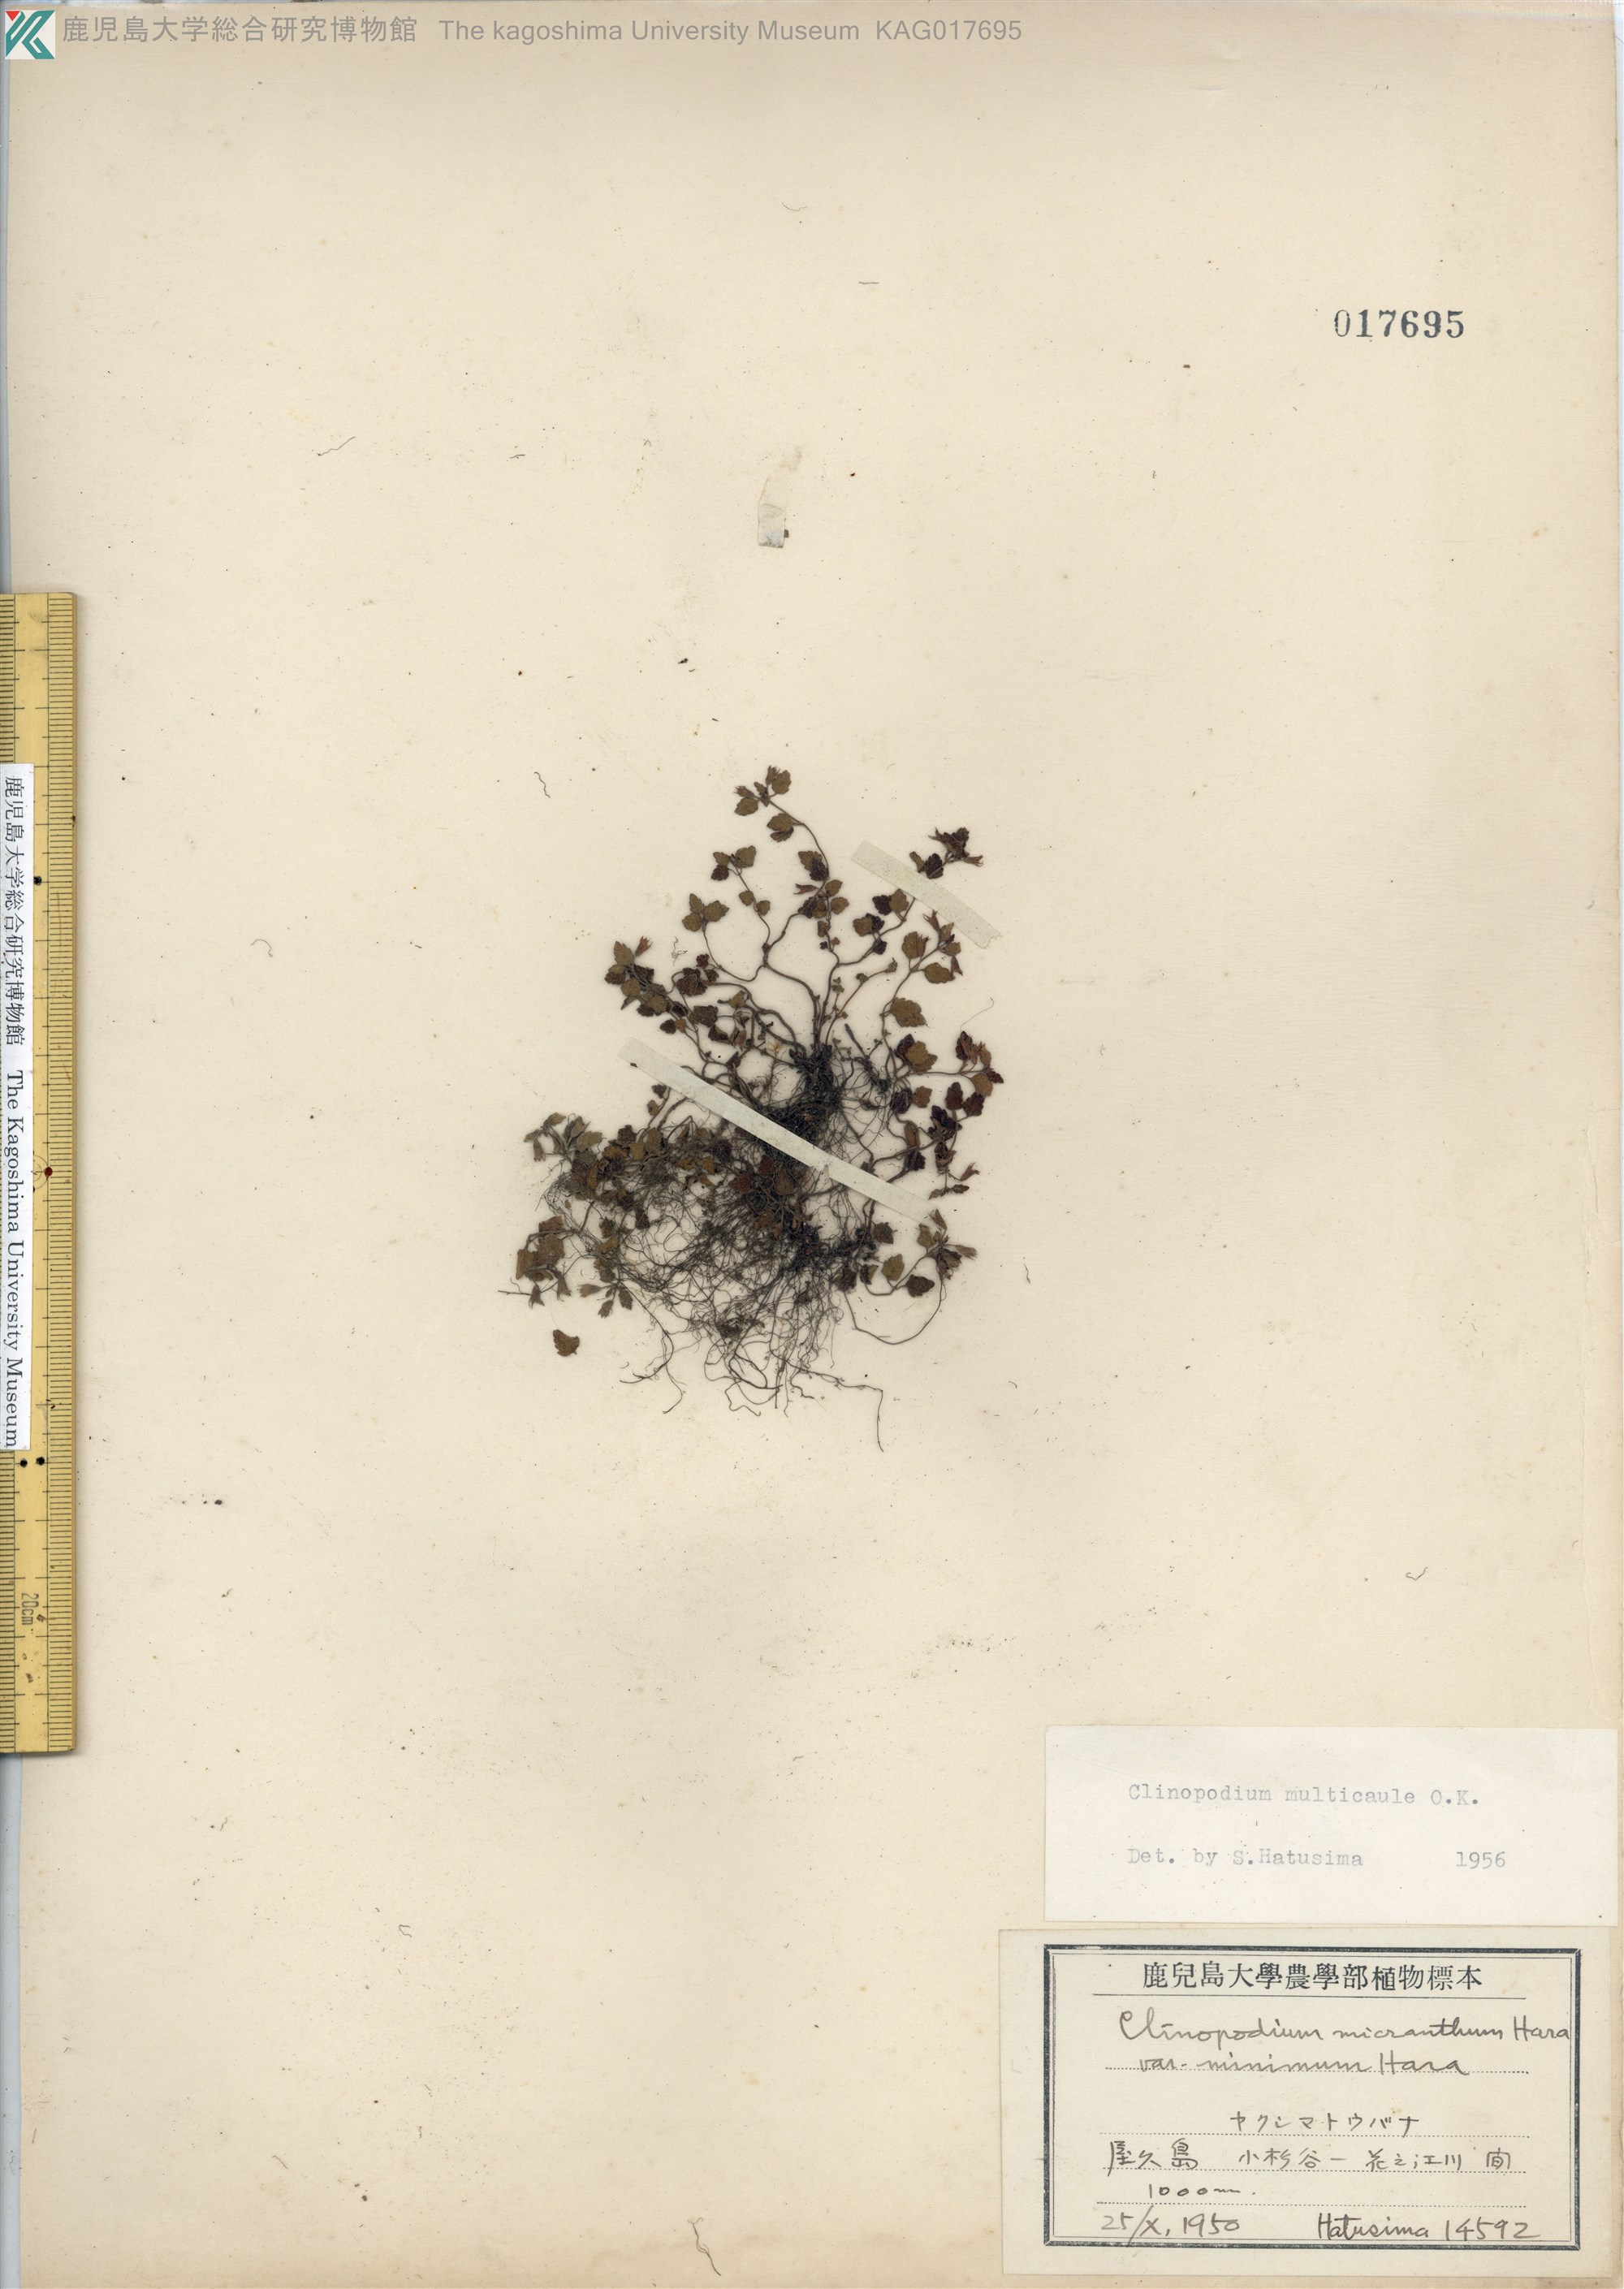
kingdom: Plantae
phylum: Tracheophyta
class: Magnoliopsida
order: Lamiales
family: Lamiaceae
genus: Clinopodium
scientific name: Clinopodium multicaule
